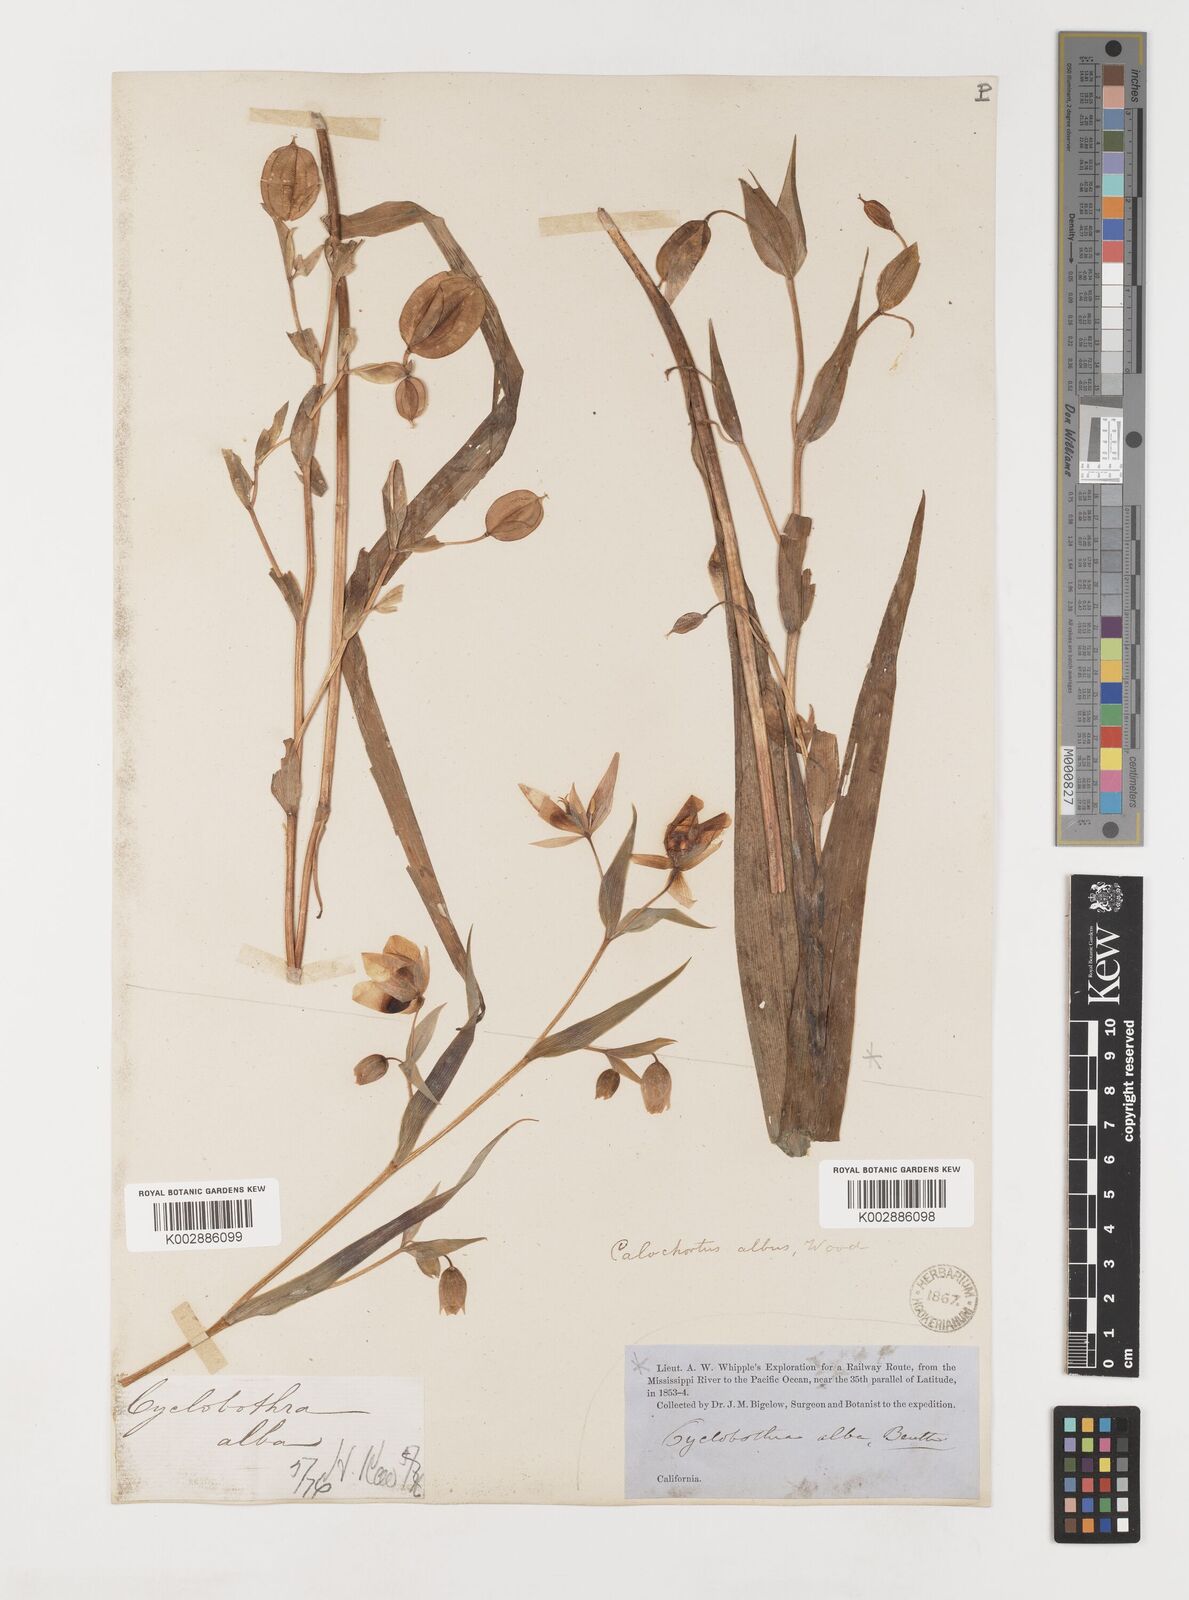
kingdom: Plantae
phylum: Tracheophyta
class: Liliopsida
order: Liliales
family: Liliaceae
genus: Calochortus
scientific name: Calochortus albus
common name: Fairy-lantern
